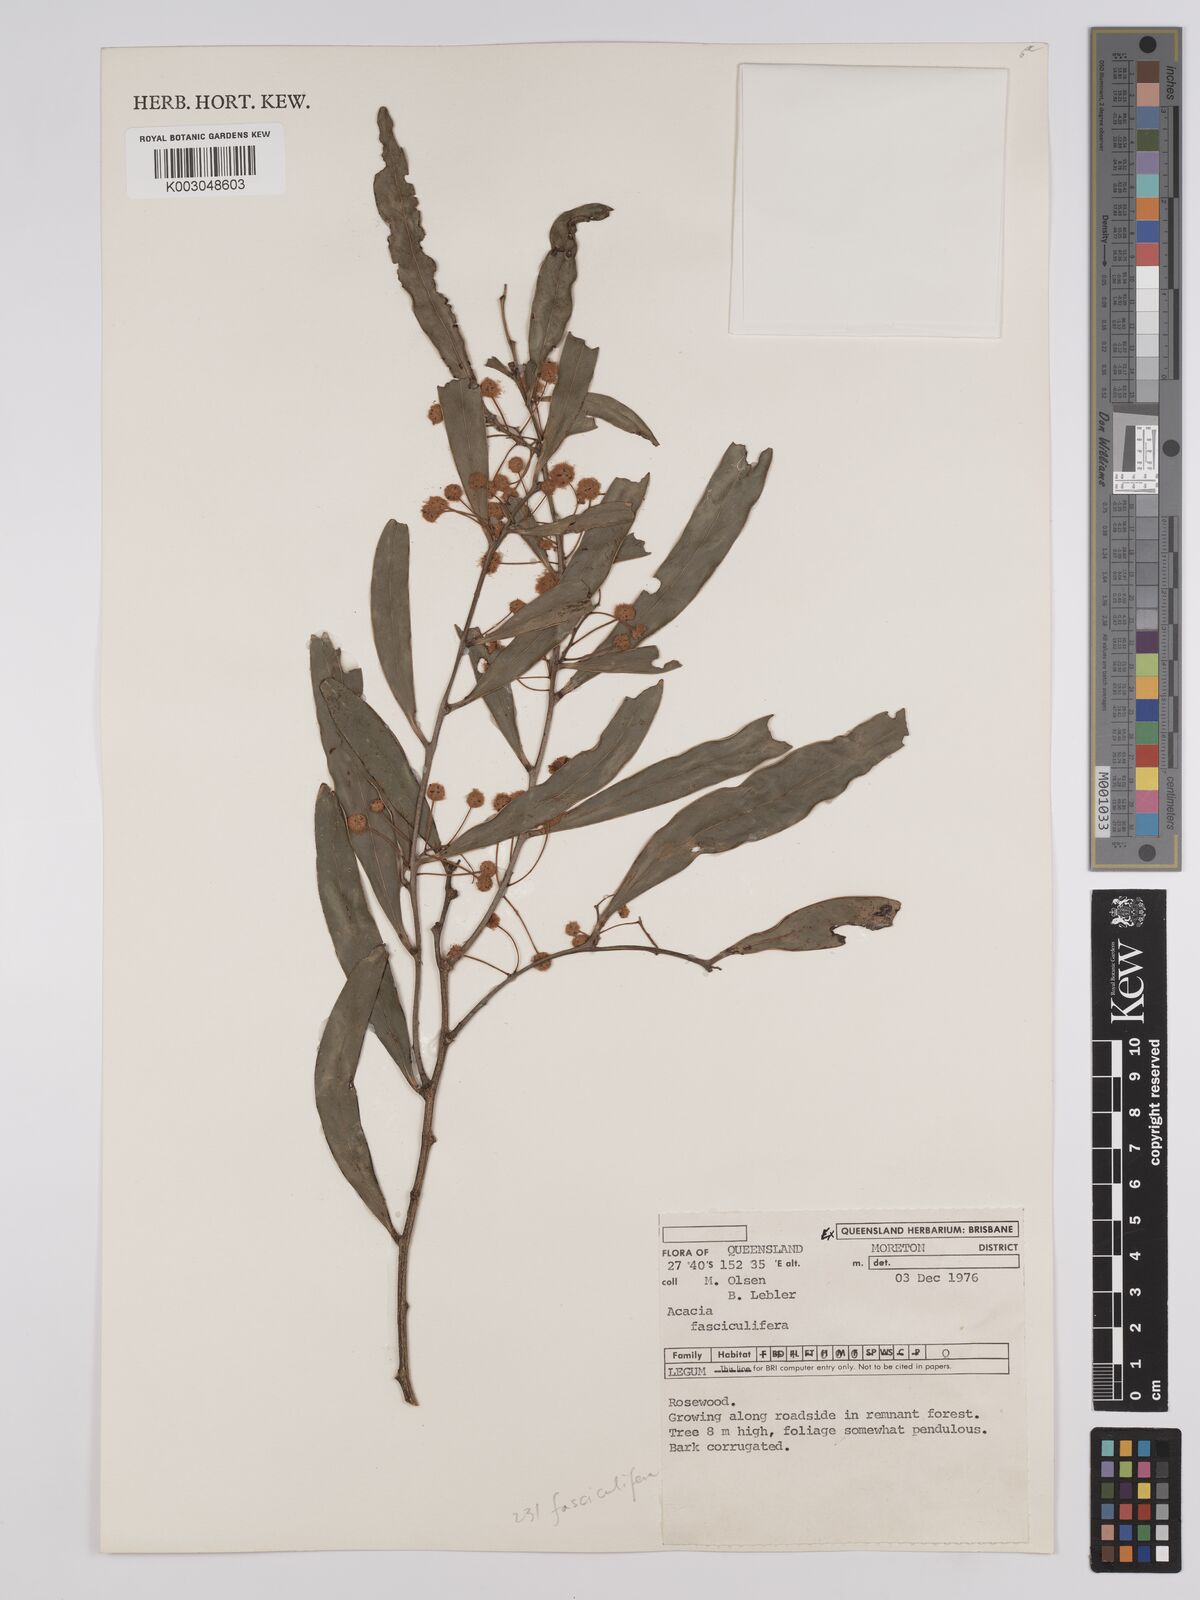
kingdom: Plantae
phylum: Tracheophyta
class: Magnoliopsida
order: Fabales
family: Fabaceae
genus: Acacia
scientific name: Acacia fasciculifera
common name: Scalybark
